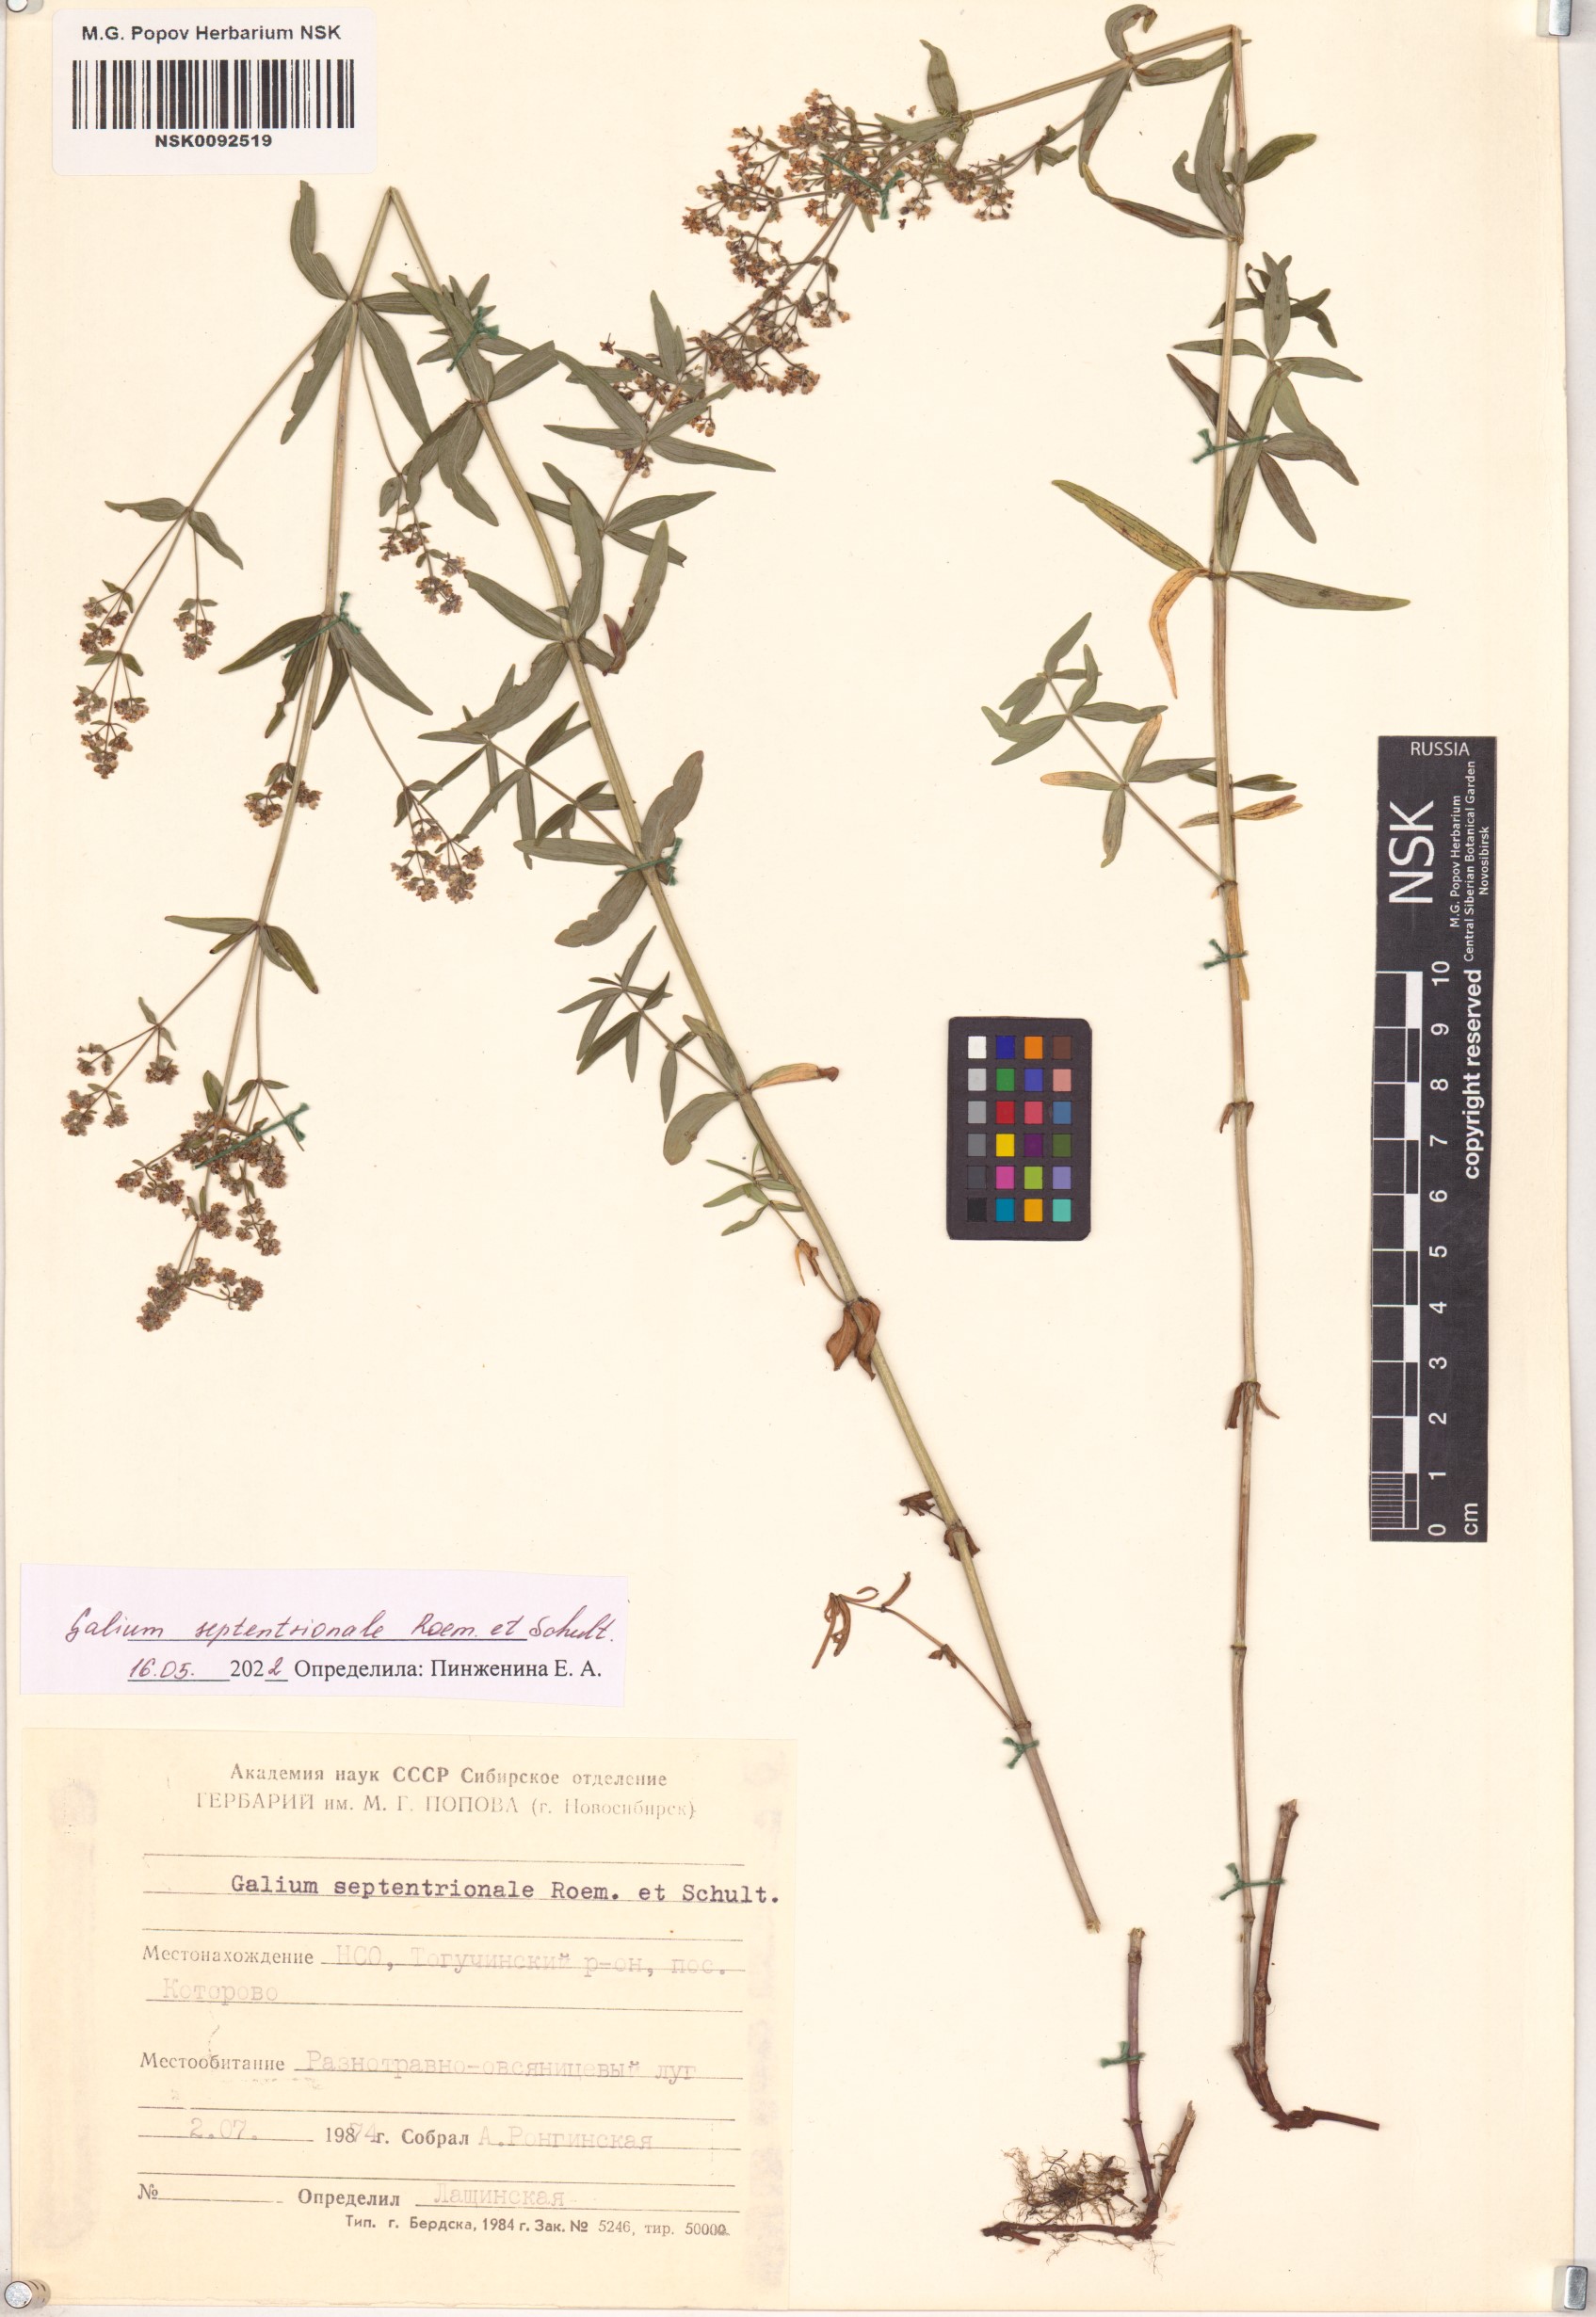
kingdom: Plantae
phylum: Tracheophyta
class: Magnoliopsida
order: Gentianales
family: Rubiaceae
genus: Galium
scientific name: Galium boreale
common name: Northern bedstraw
